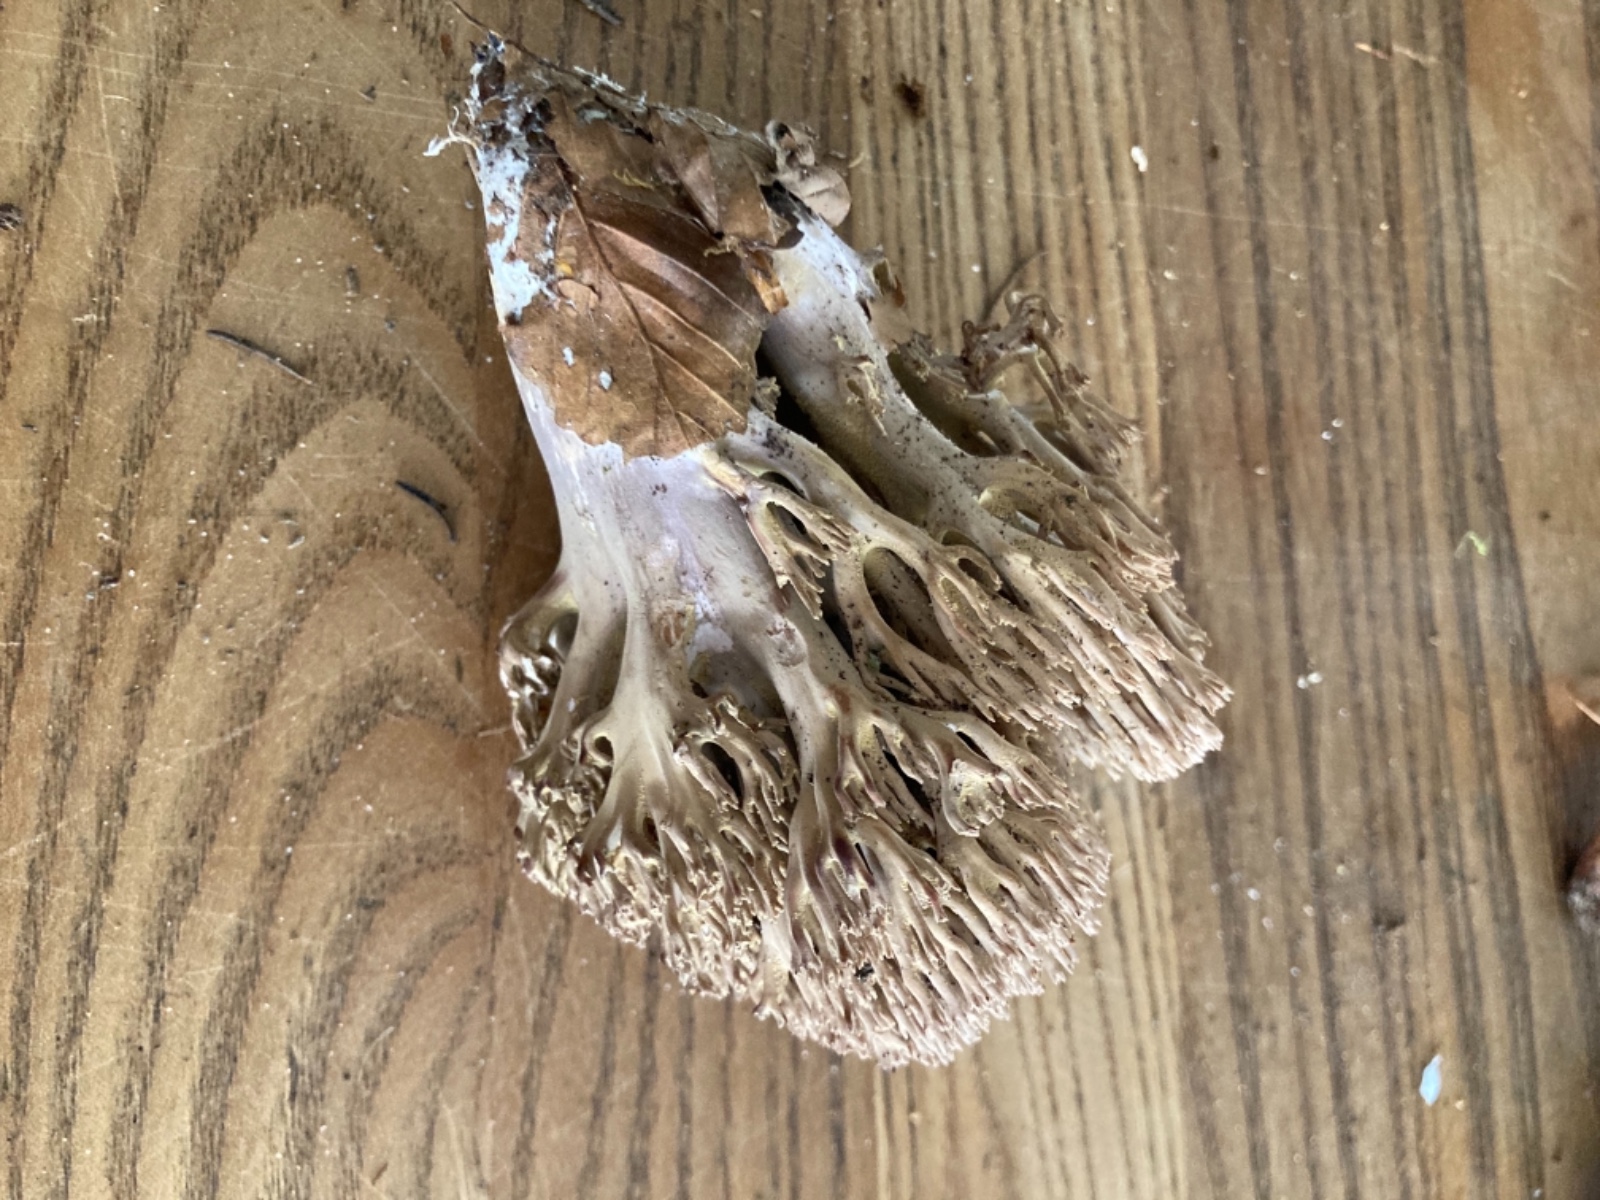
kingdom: Fungi
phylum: Basidiomycota
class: Agaricomycetes
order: Gomphales
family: Gomphaceae
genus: Ramaria
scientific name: Ramaria fumigata
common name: violet koralsvamp
